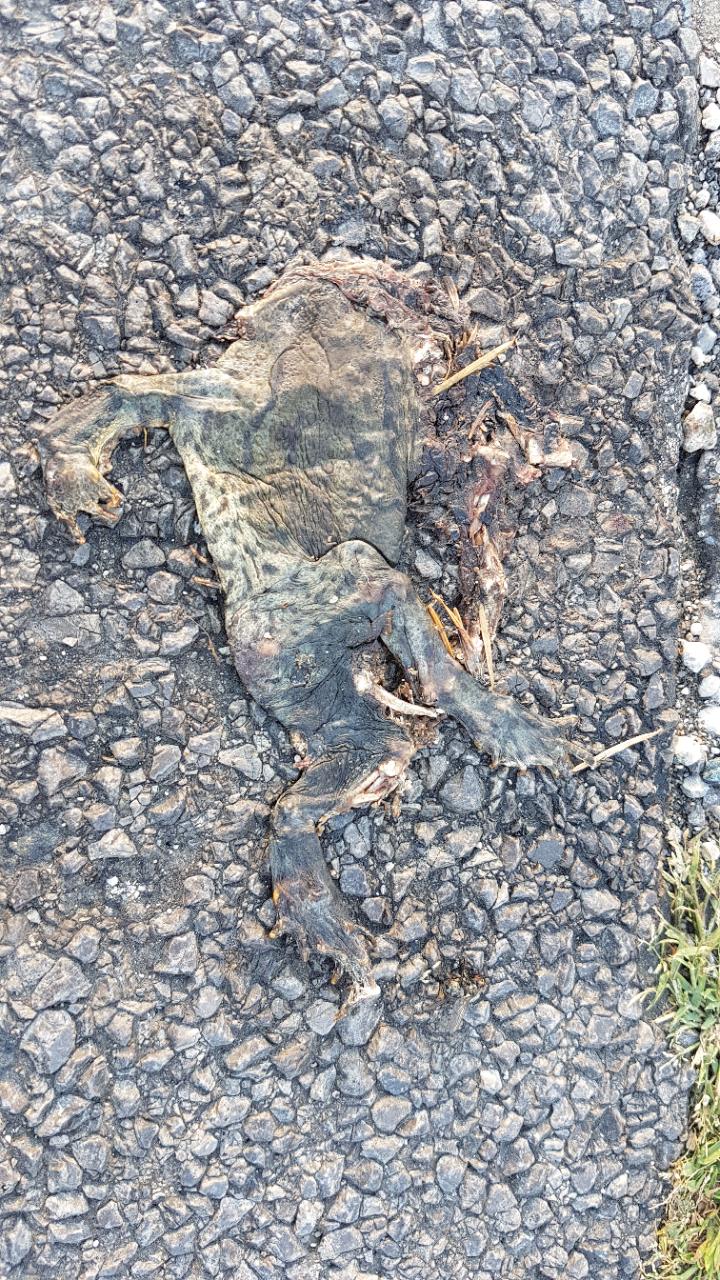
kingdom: Animalia
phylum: Chordata
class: Amphibia
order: Anura
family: Bufonidae
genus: Bufo
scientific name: Bufo bufo
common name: Common toad
